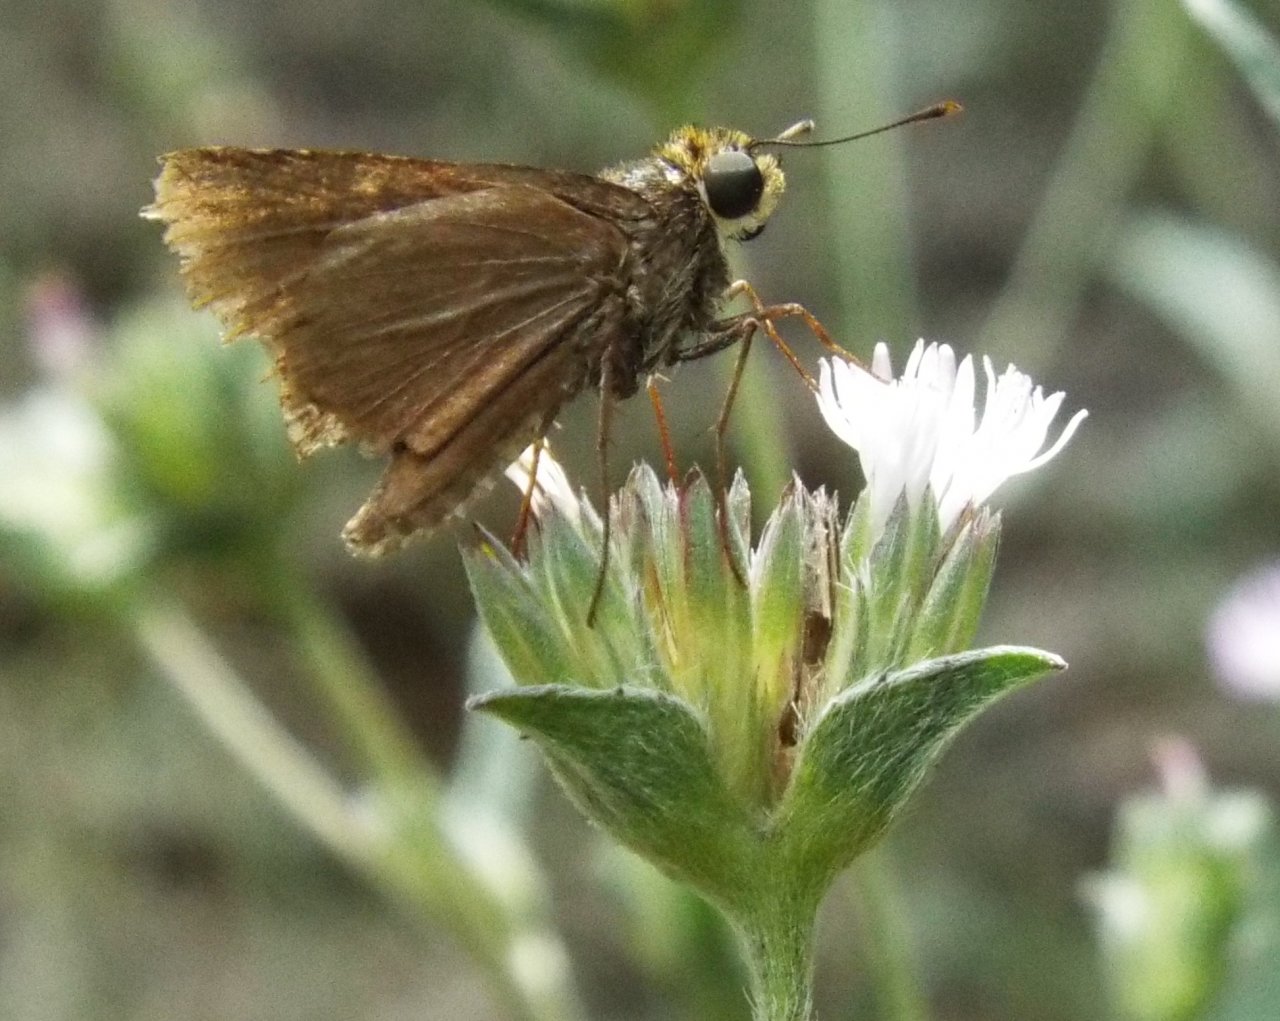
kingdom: Animalia
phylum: Arthropoda
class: Insecta
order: Lepidoptera
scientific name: Lepidoptera
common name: Butterflies
